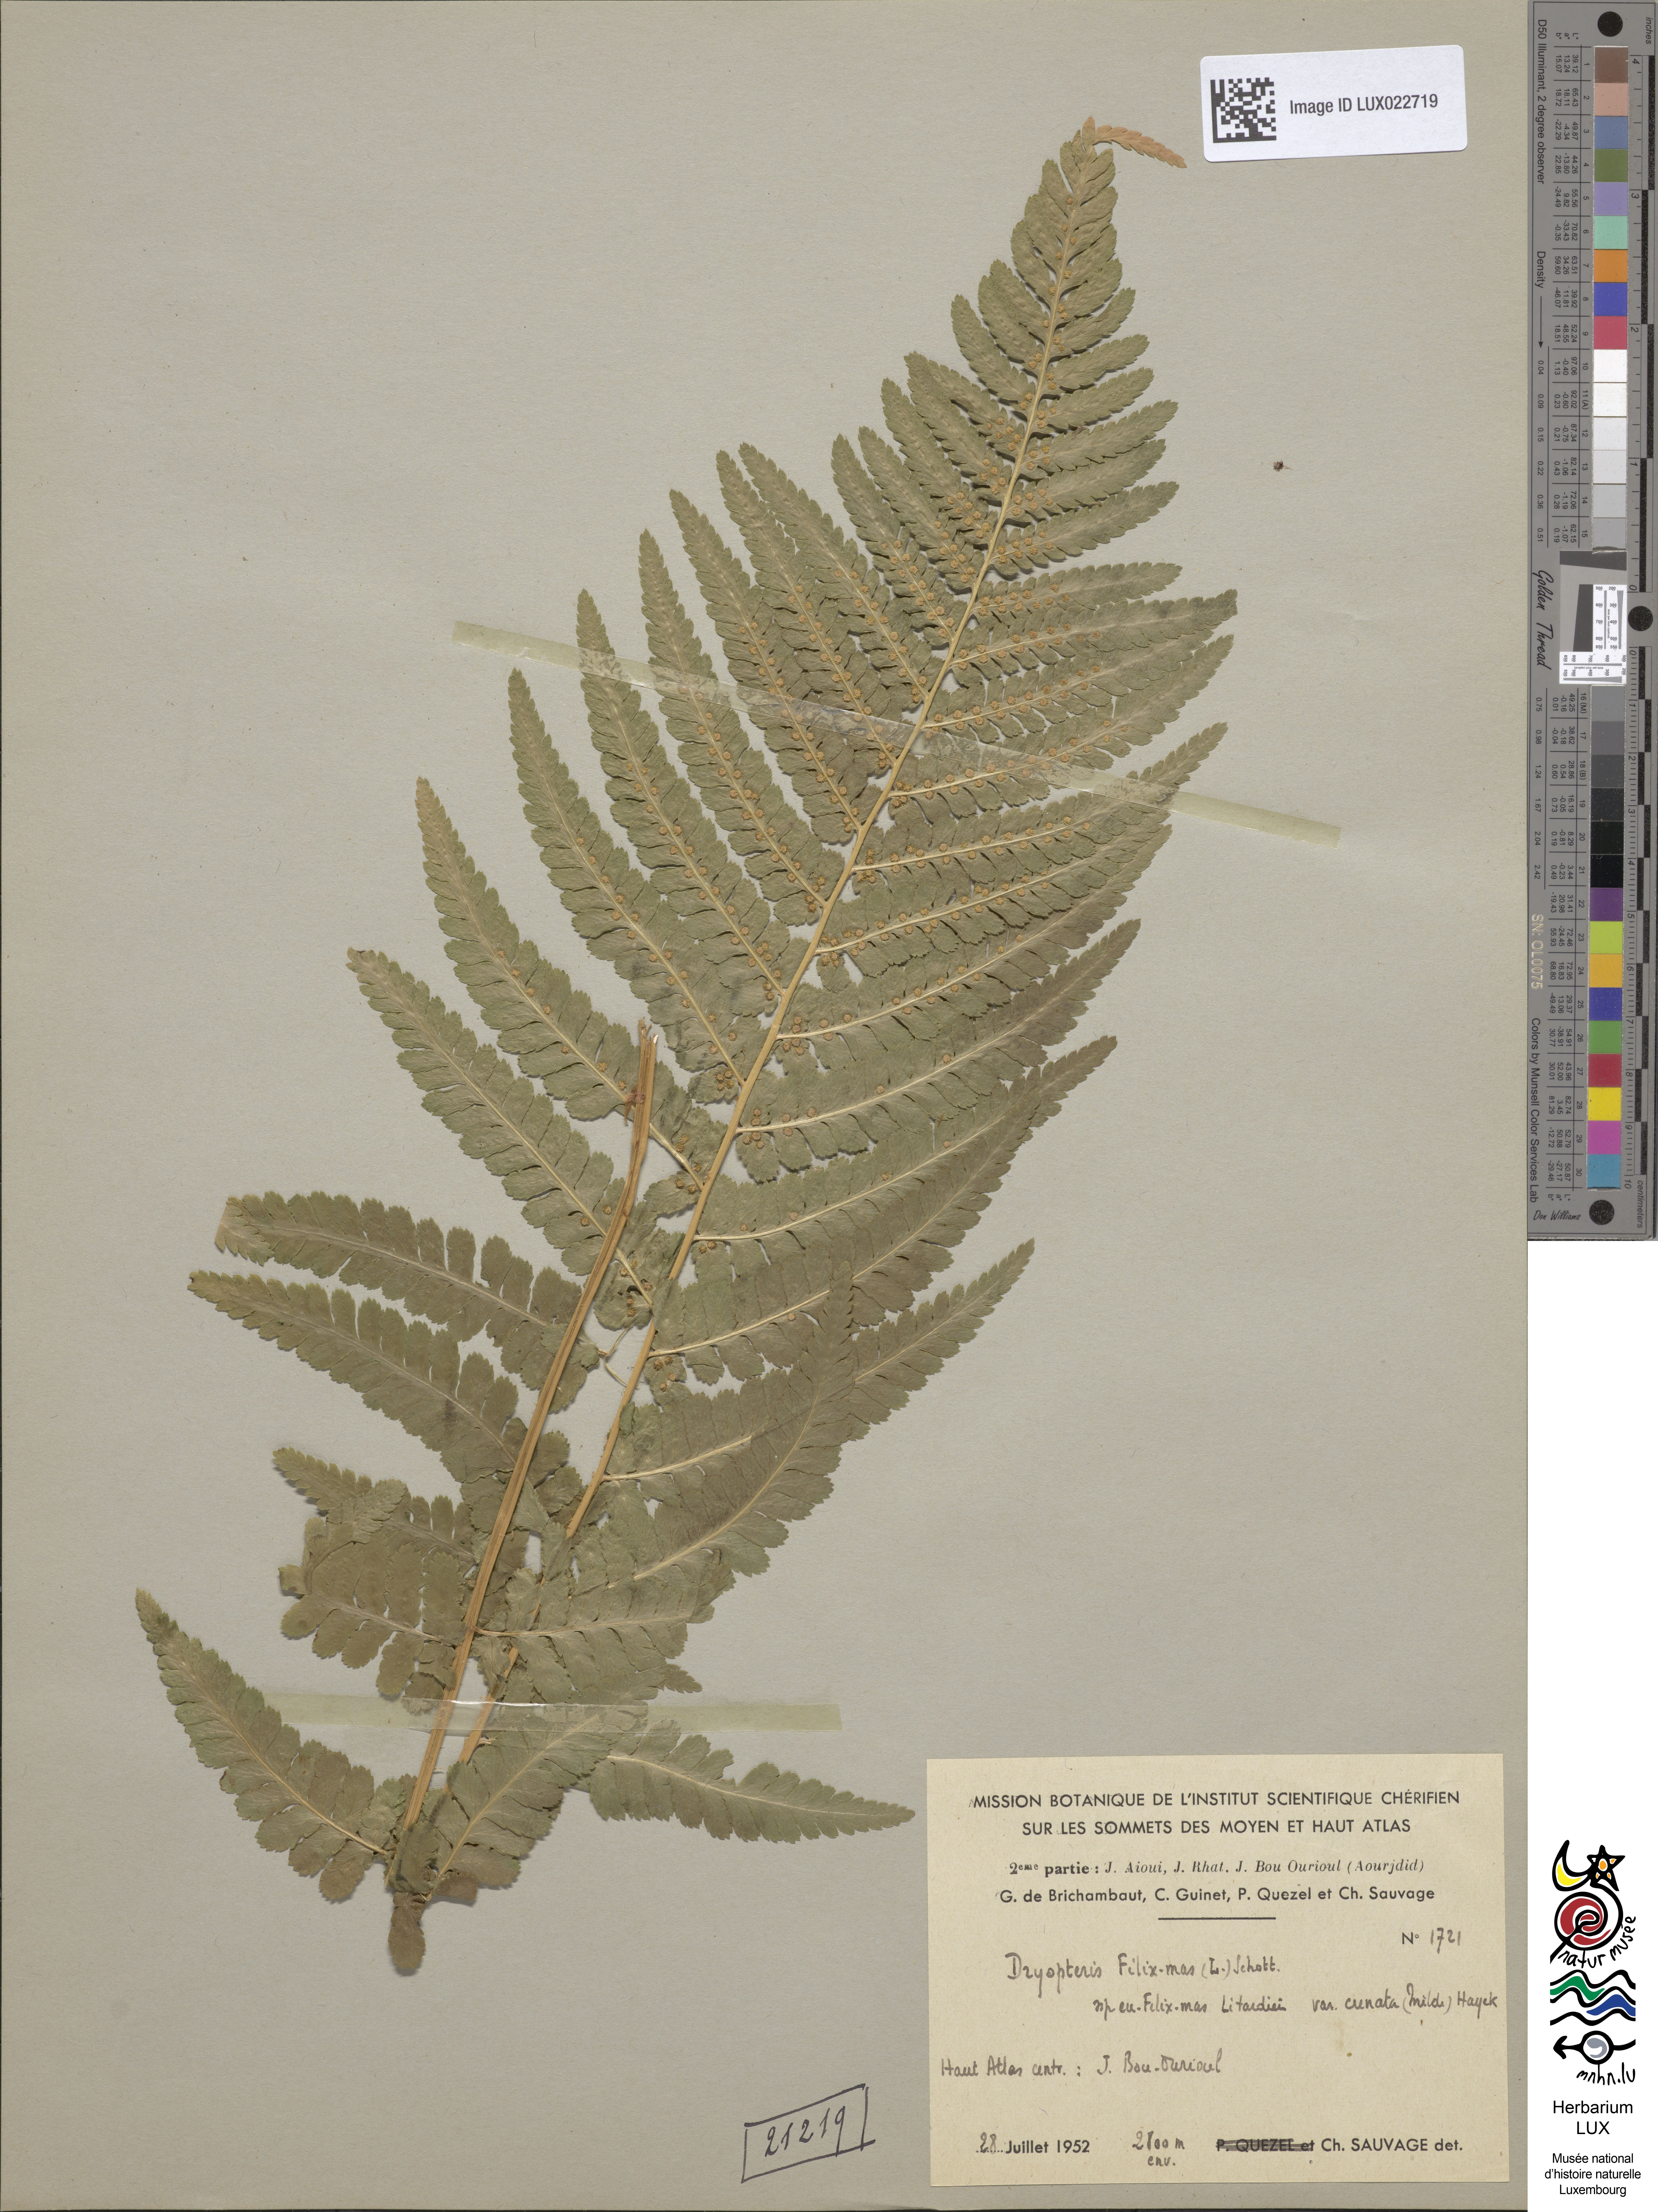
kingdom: Plantae
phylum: Tracheophyta
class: Polypodiopsida
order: Polypodiales
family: Dryopteridaceae
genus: Dryopteris
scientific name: Dryopteris filix-mas
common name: Male fern
